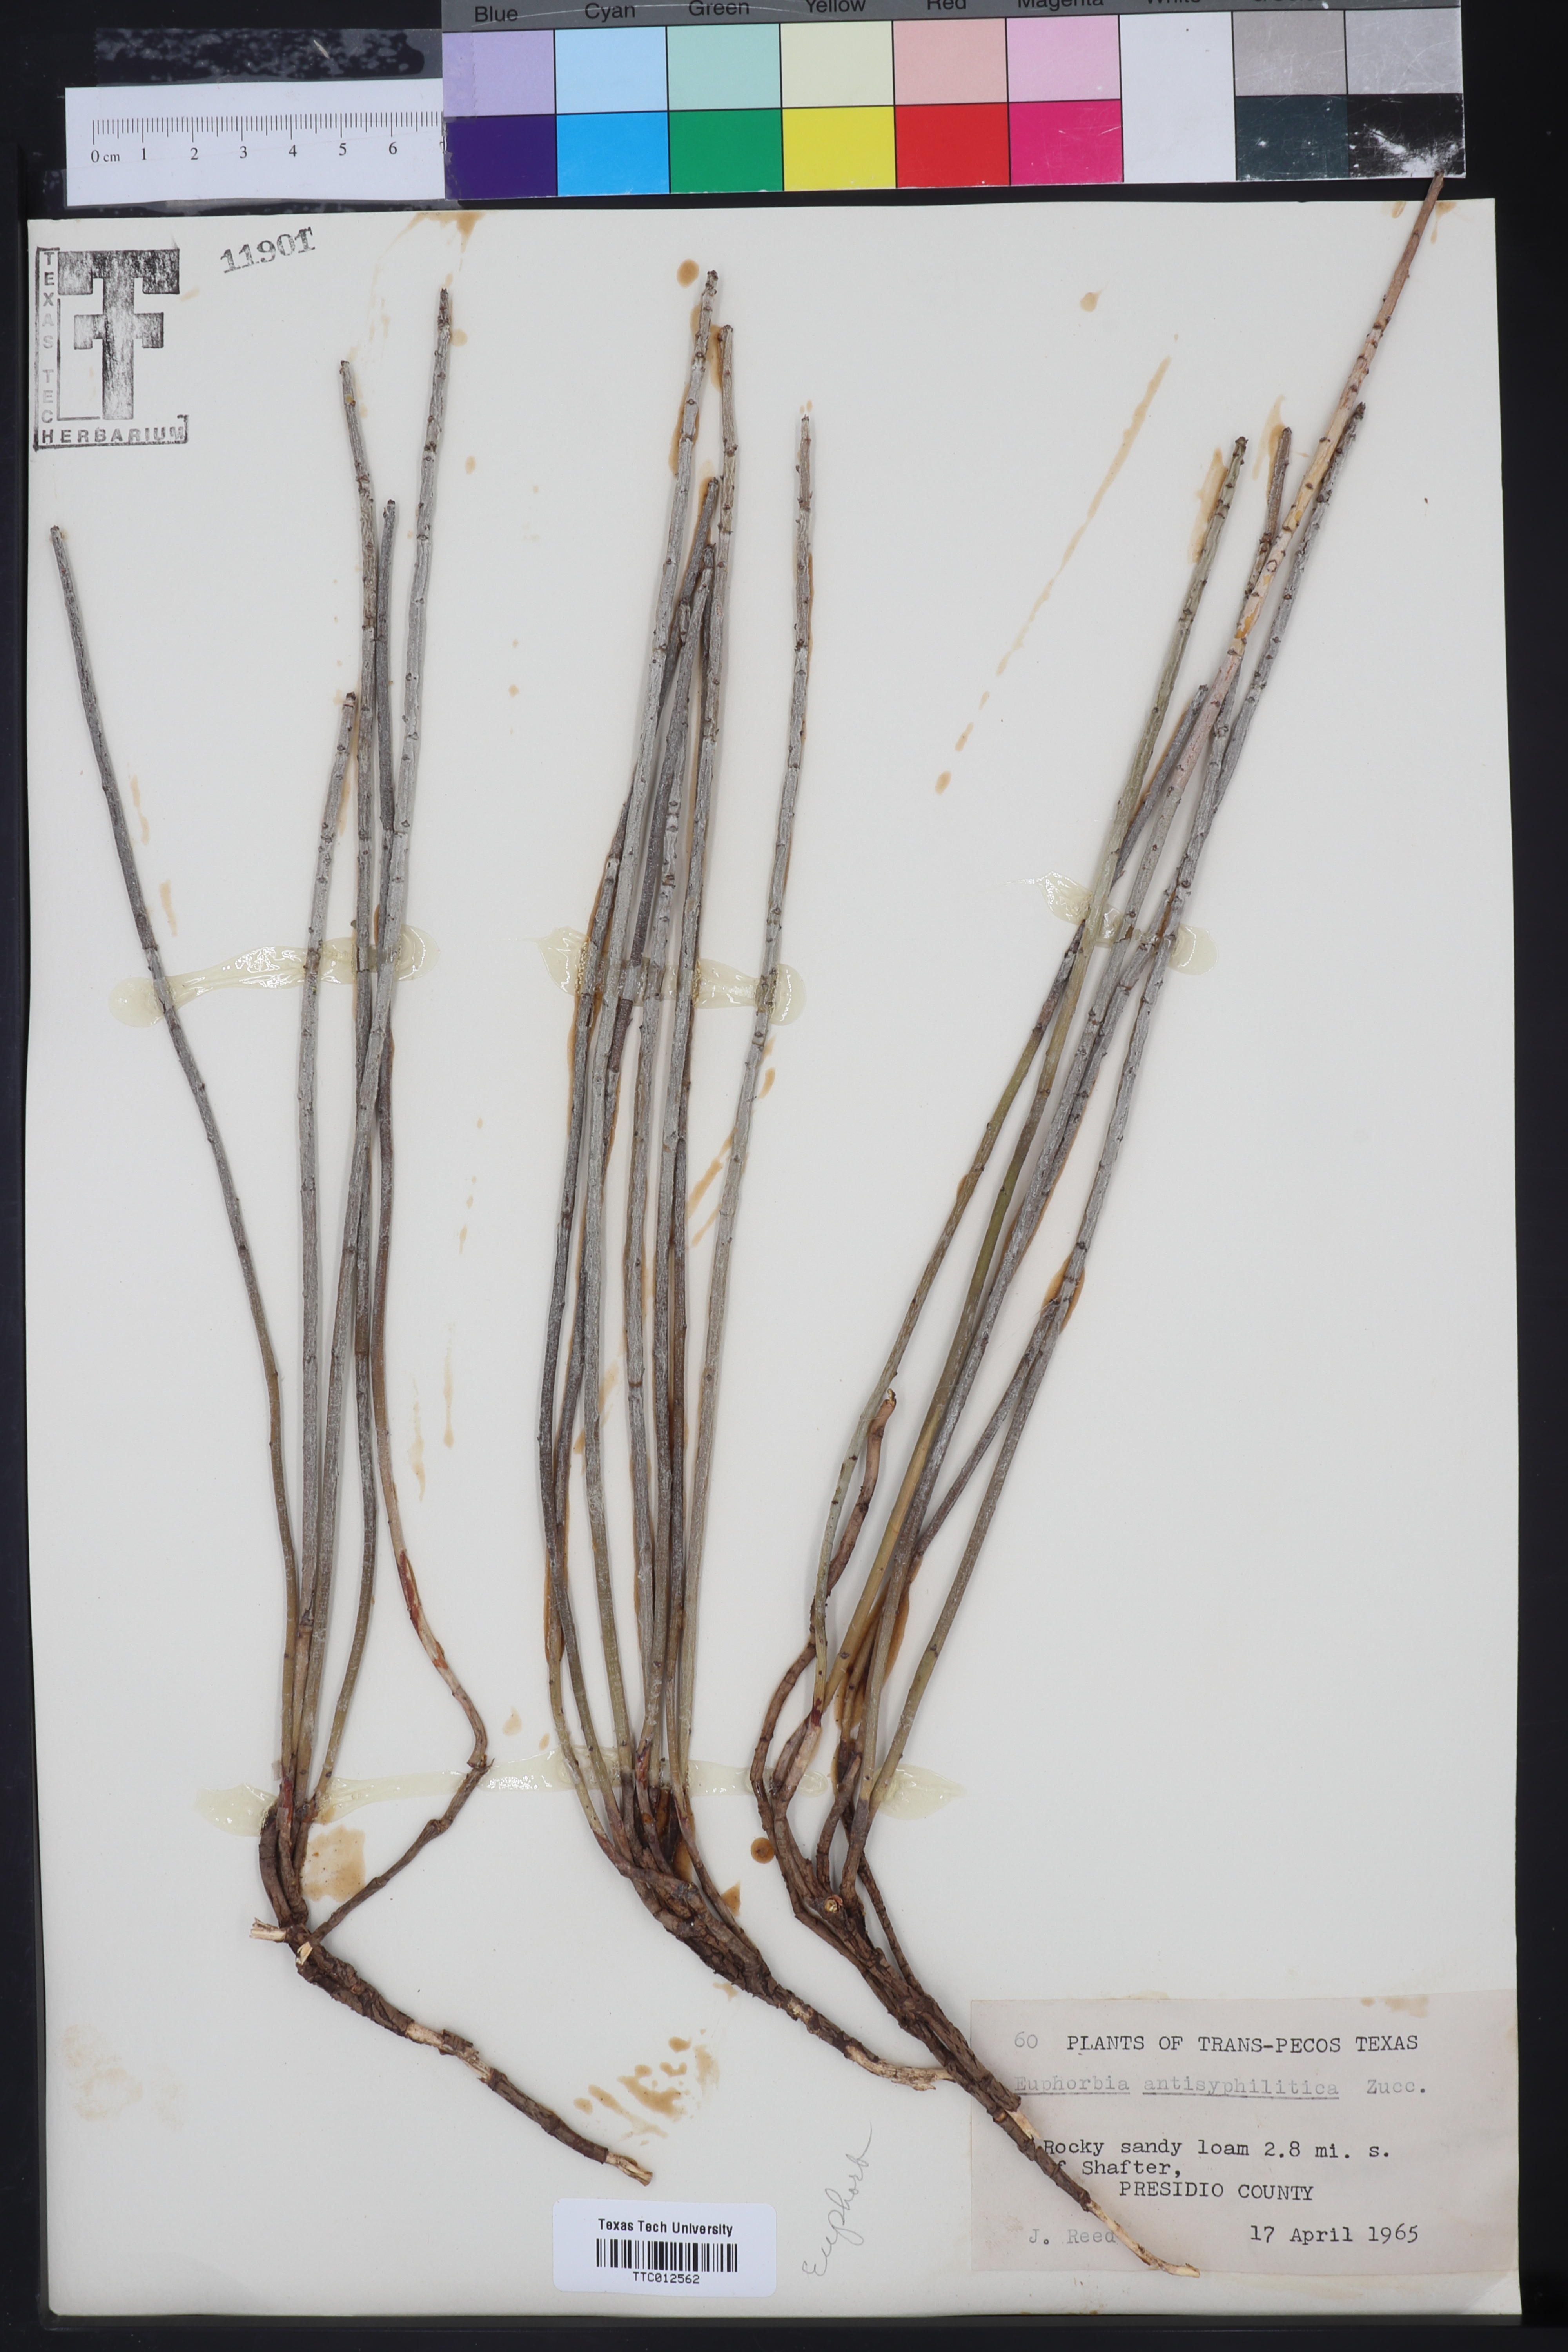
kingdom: Plantae
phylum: Tracheophyta
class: Magnoliopsida
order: Malpighiales
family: Euphorbiaceae
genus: Euphorbia
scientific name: Euphorbia antisyphilitica
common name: Candelilla
